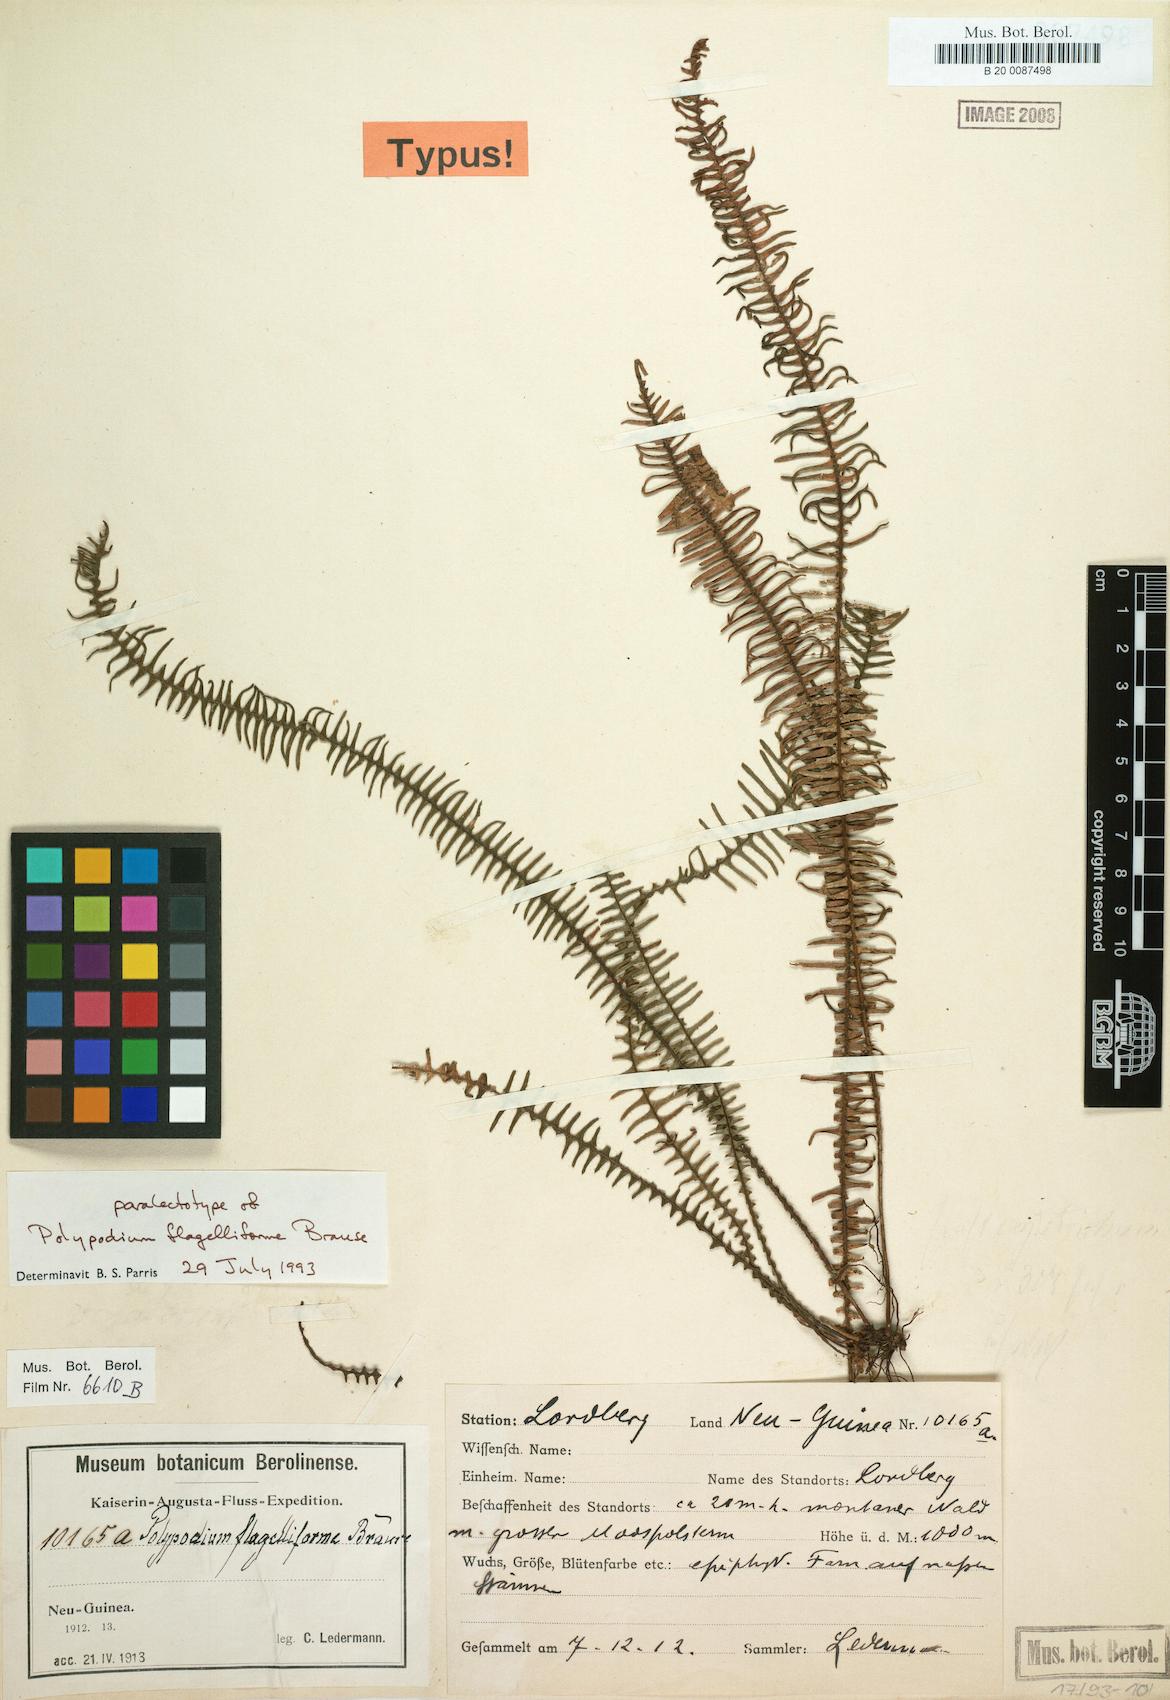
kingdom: Plantae
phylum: Tracheophyta
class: Polypodiopsida
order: Polypodiales
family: Polypodiaceae
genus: Oreogrammitis
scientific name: Oreogrammitis ctenoidea
